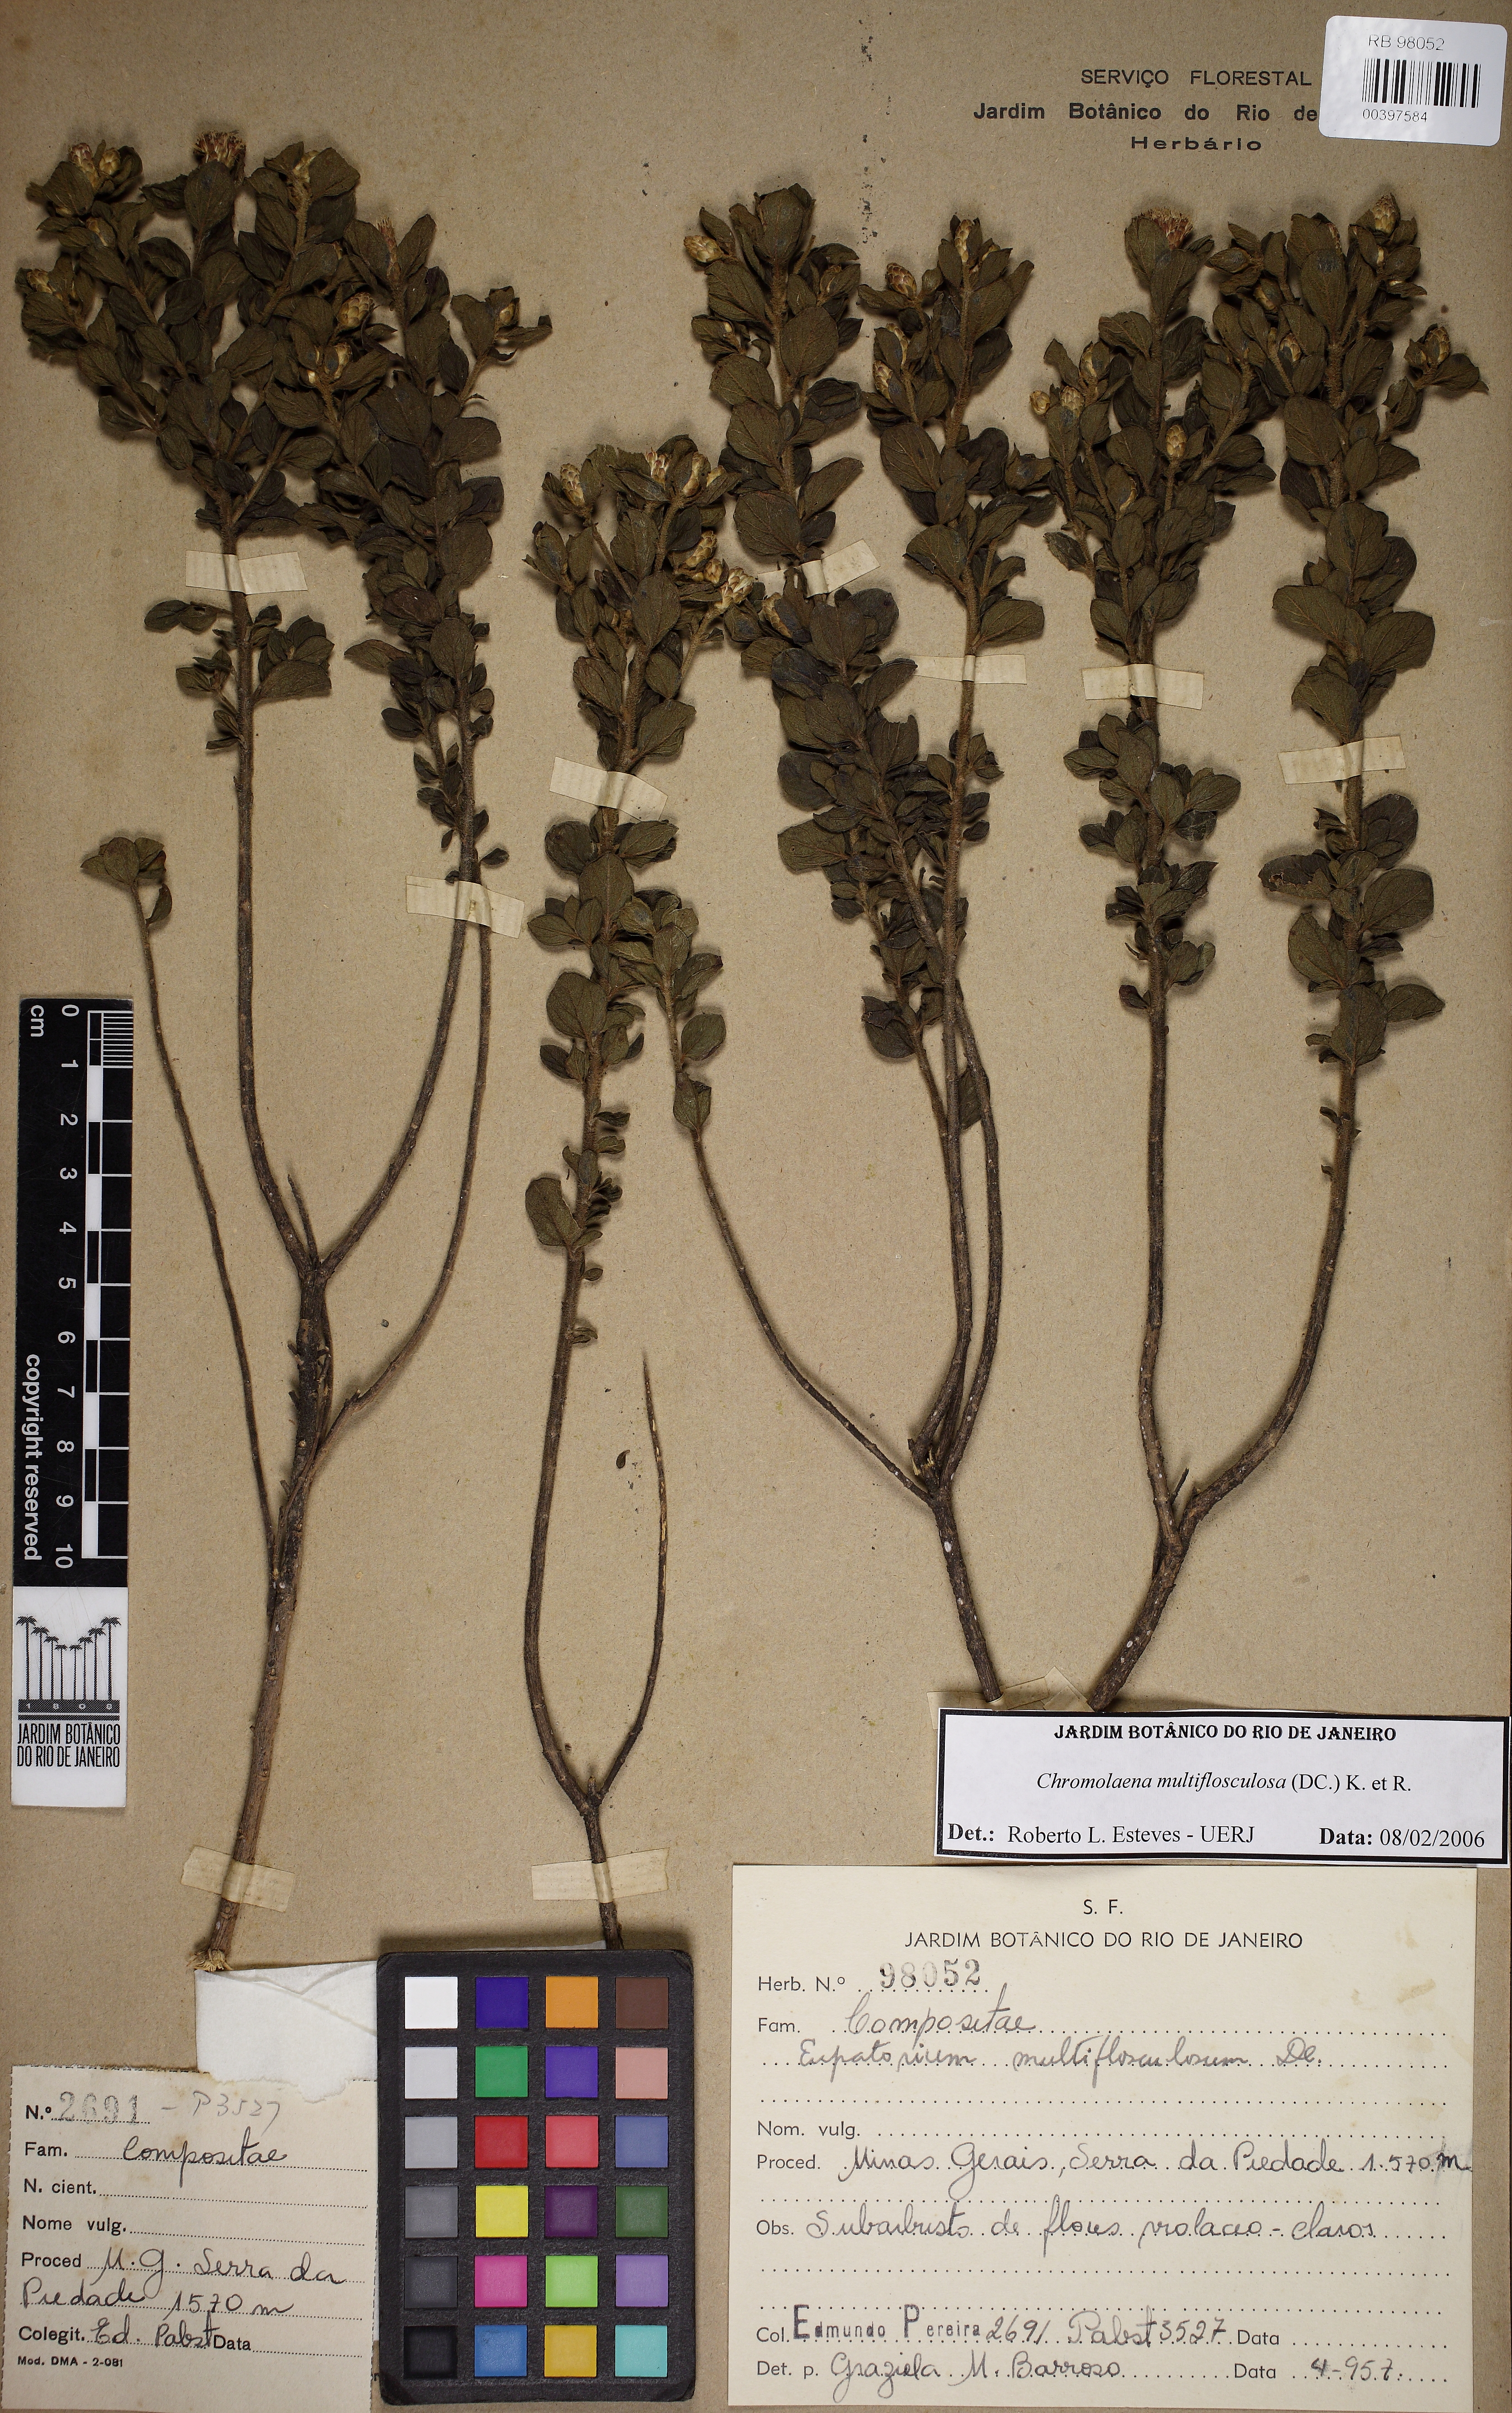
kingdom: Plantae
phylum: Tracheophyta
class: Magnoliopsida
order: Asterales
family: Asteraceae
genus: Chromolaena
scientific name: Chromolaena multiflosculosa
